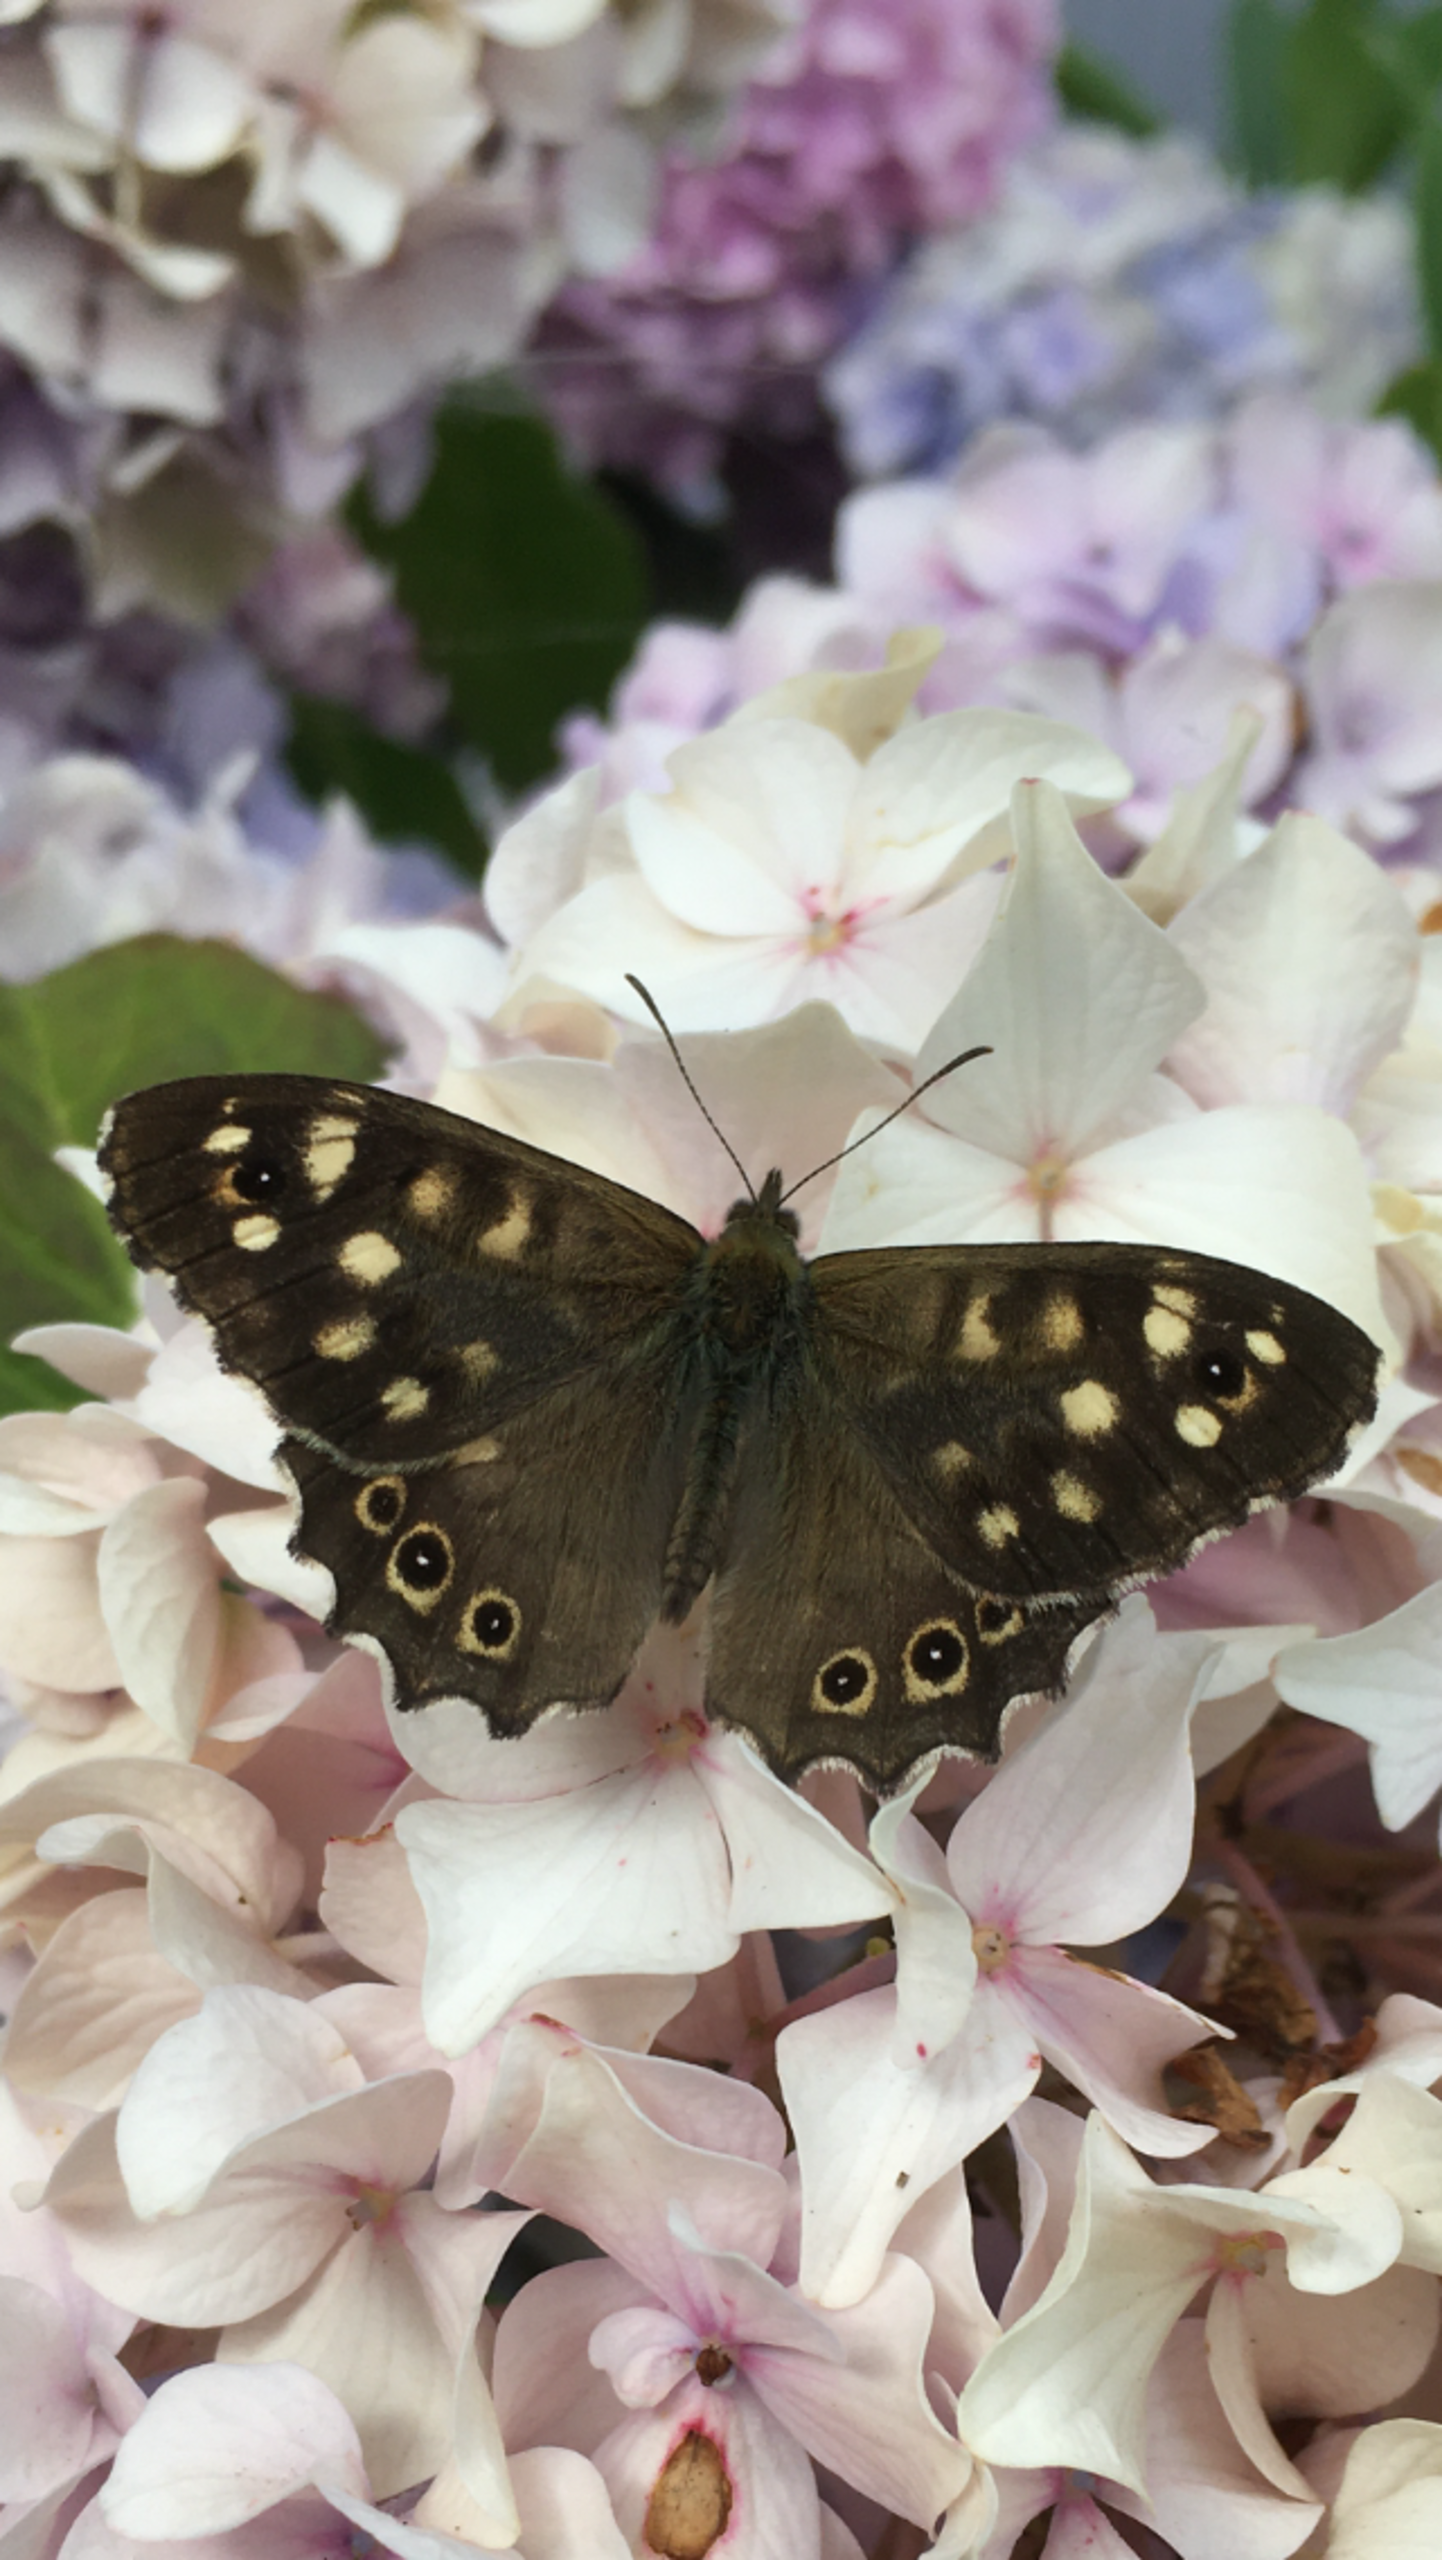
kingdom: Animalia
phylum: Arthropoda
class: Insecta
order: Lepidoptera
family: Nymphalidae
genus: Pararge
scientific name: Pararge aegeria
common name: Skovrandøje
